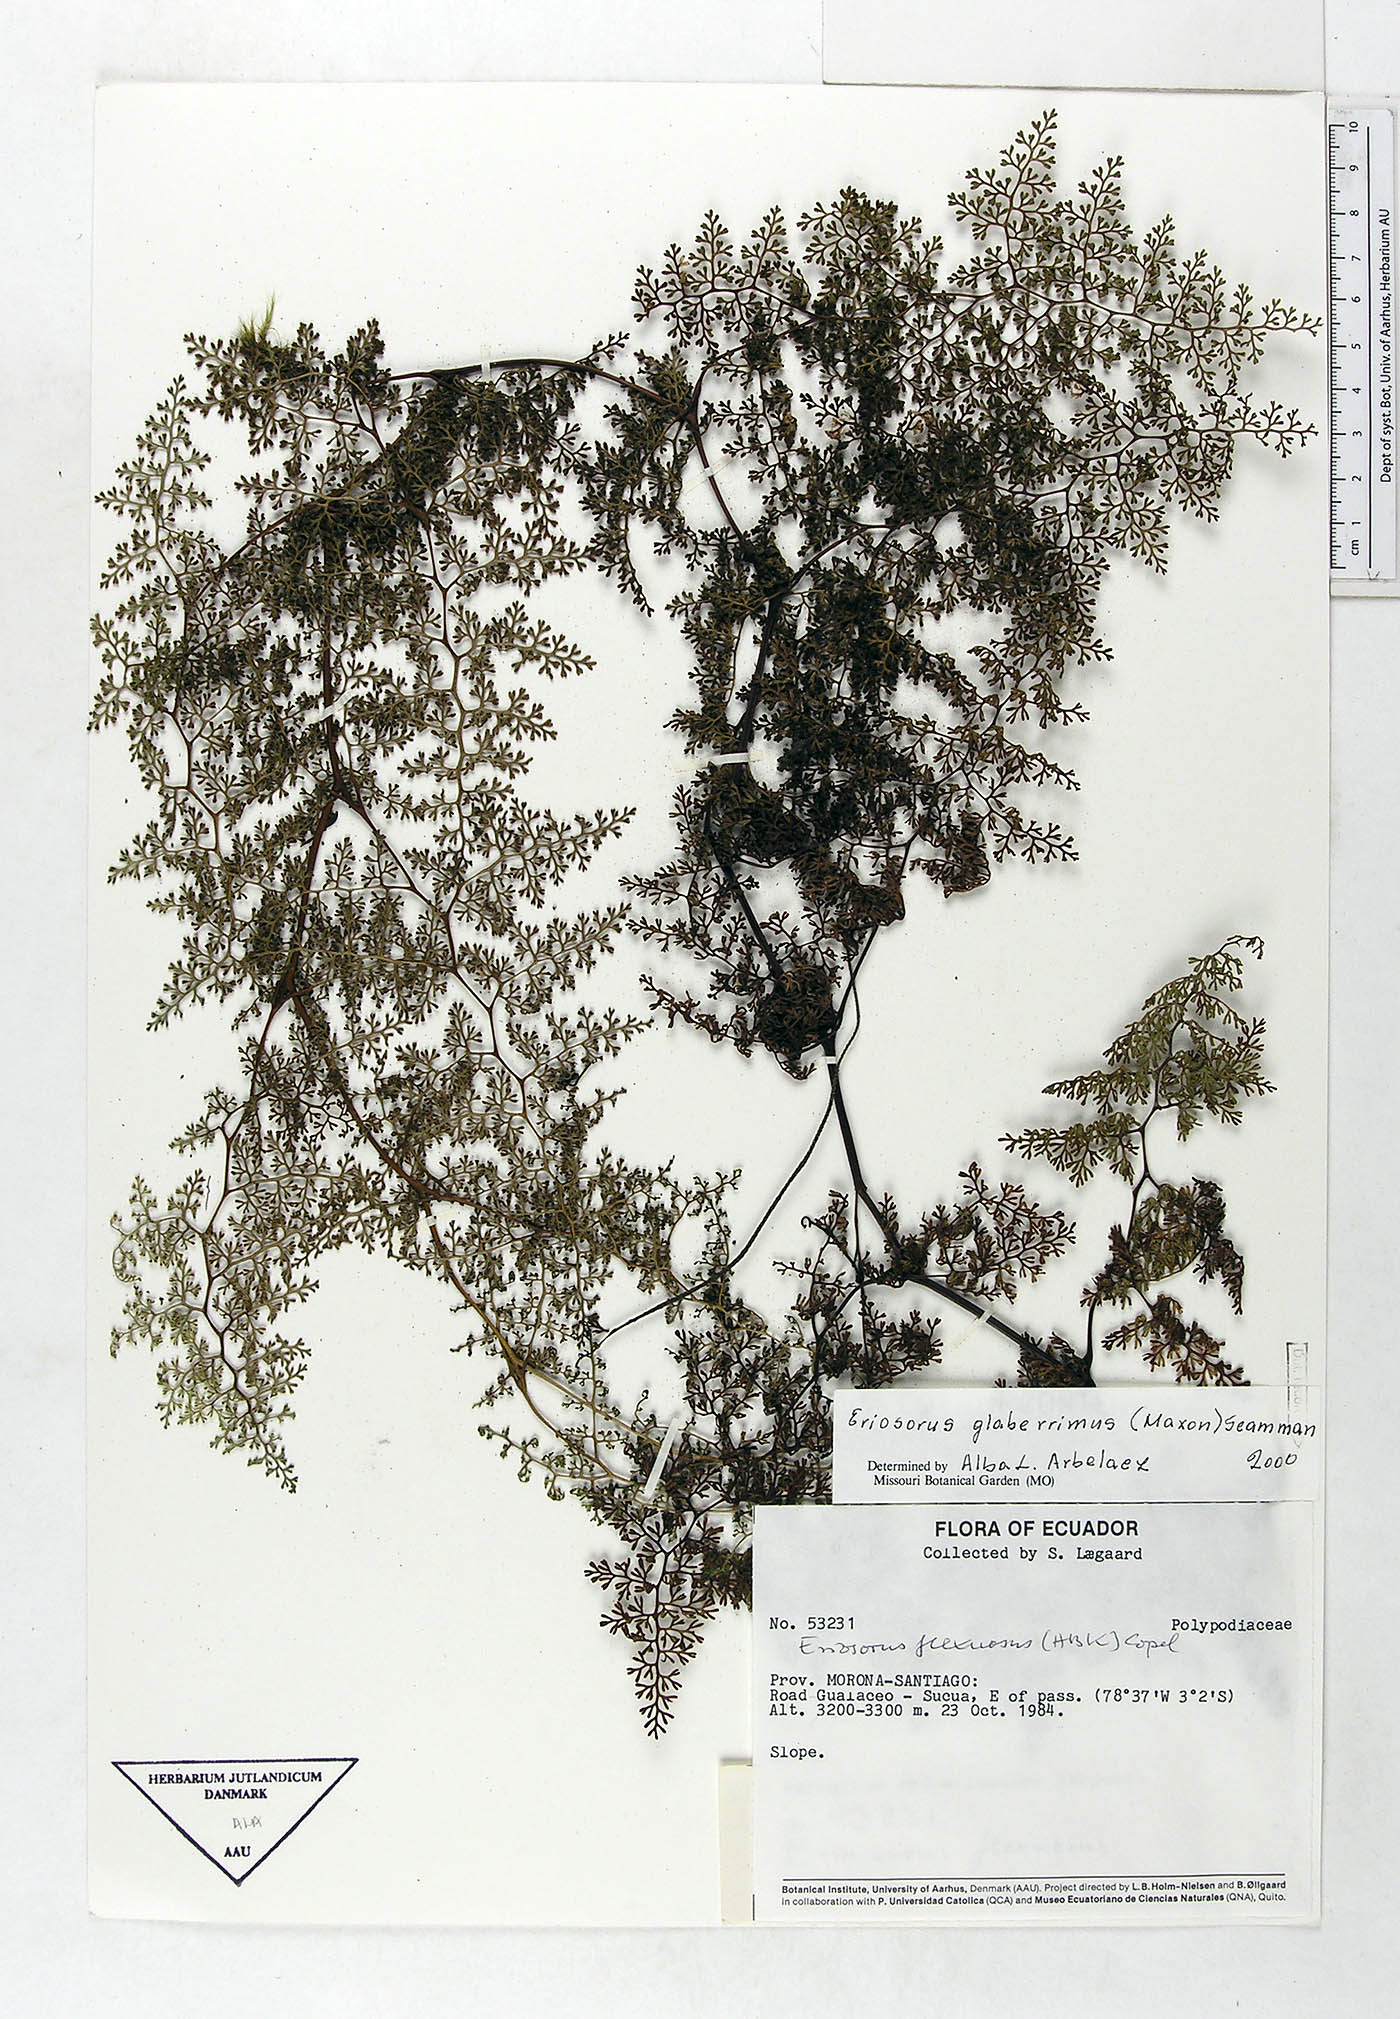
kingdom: Plantae
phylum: Tracheophyta
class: Polypodiopsida
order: Polypodiales
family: Pteridaceae
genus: Jamesonia
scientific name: Jamesonia glaberrima
